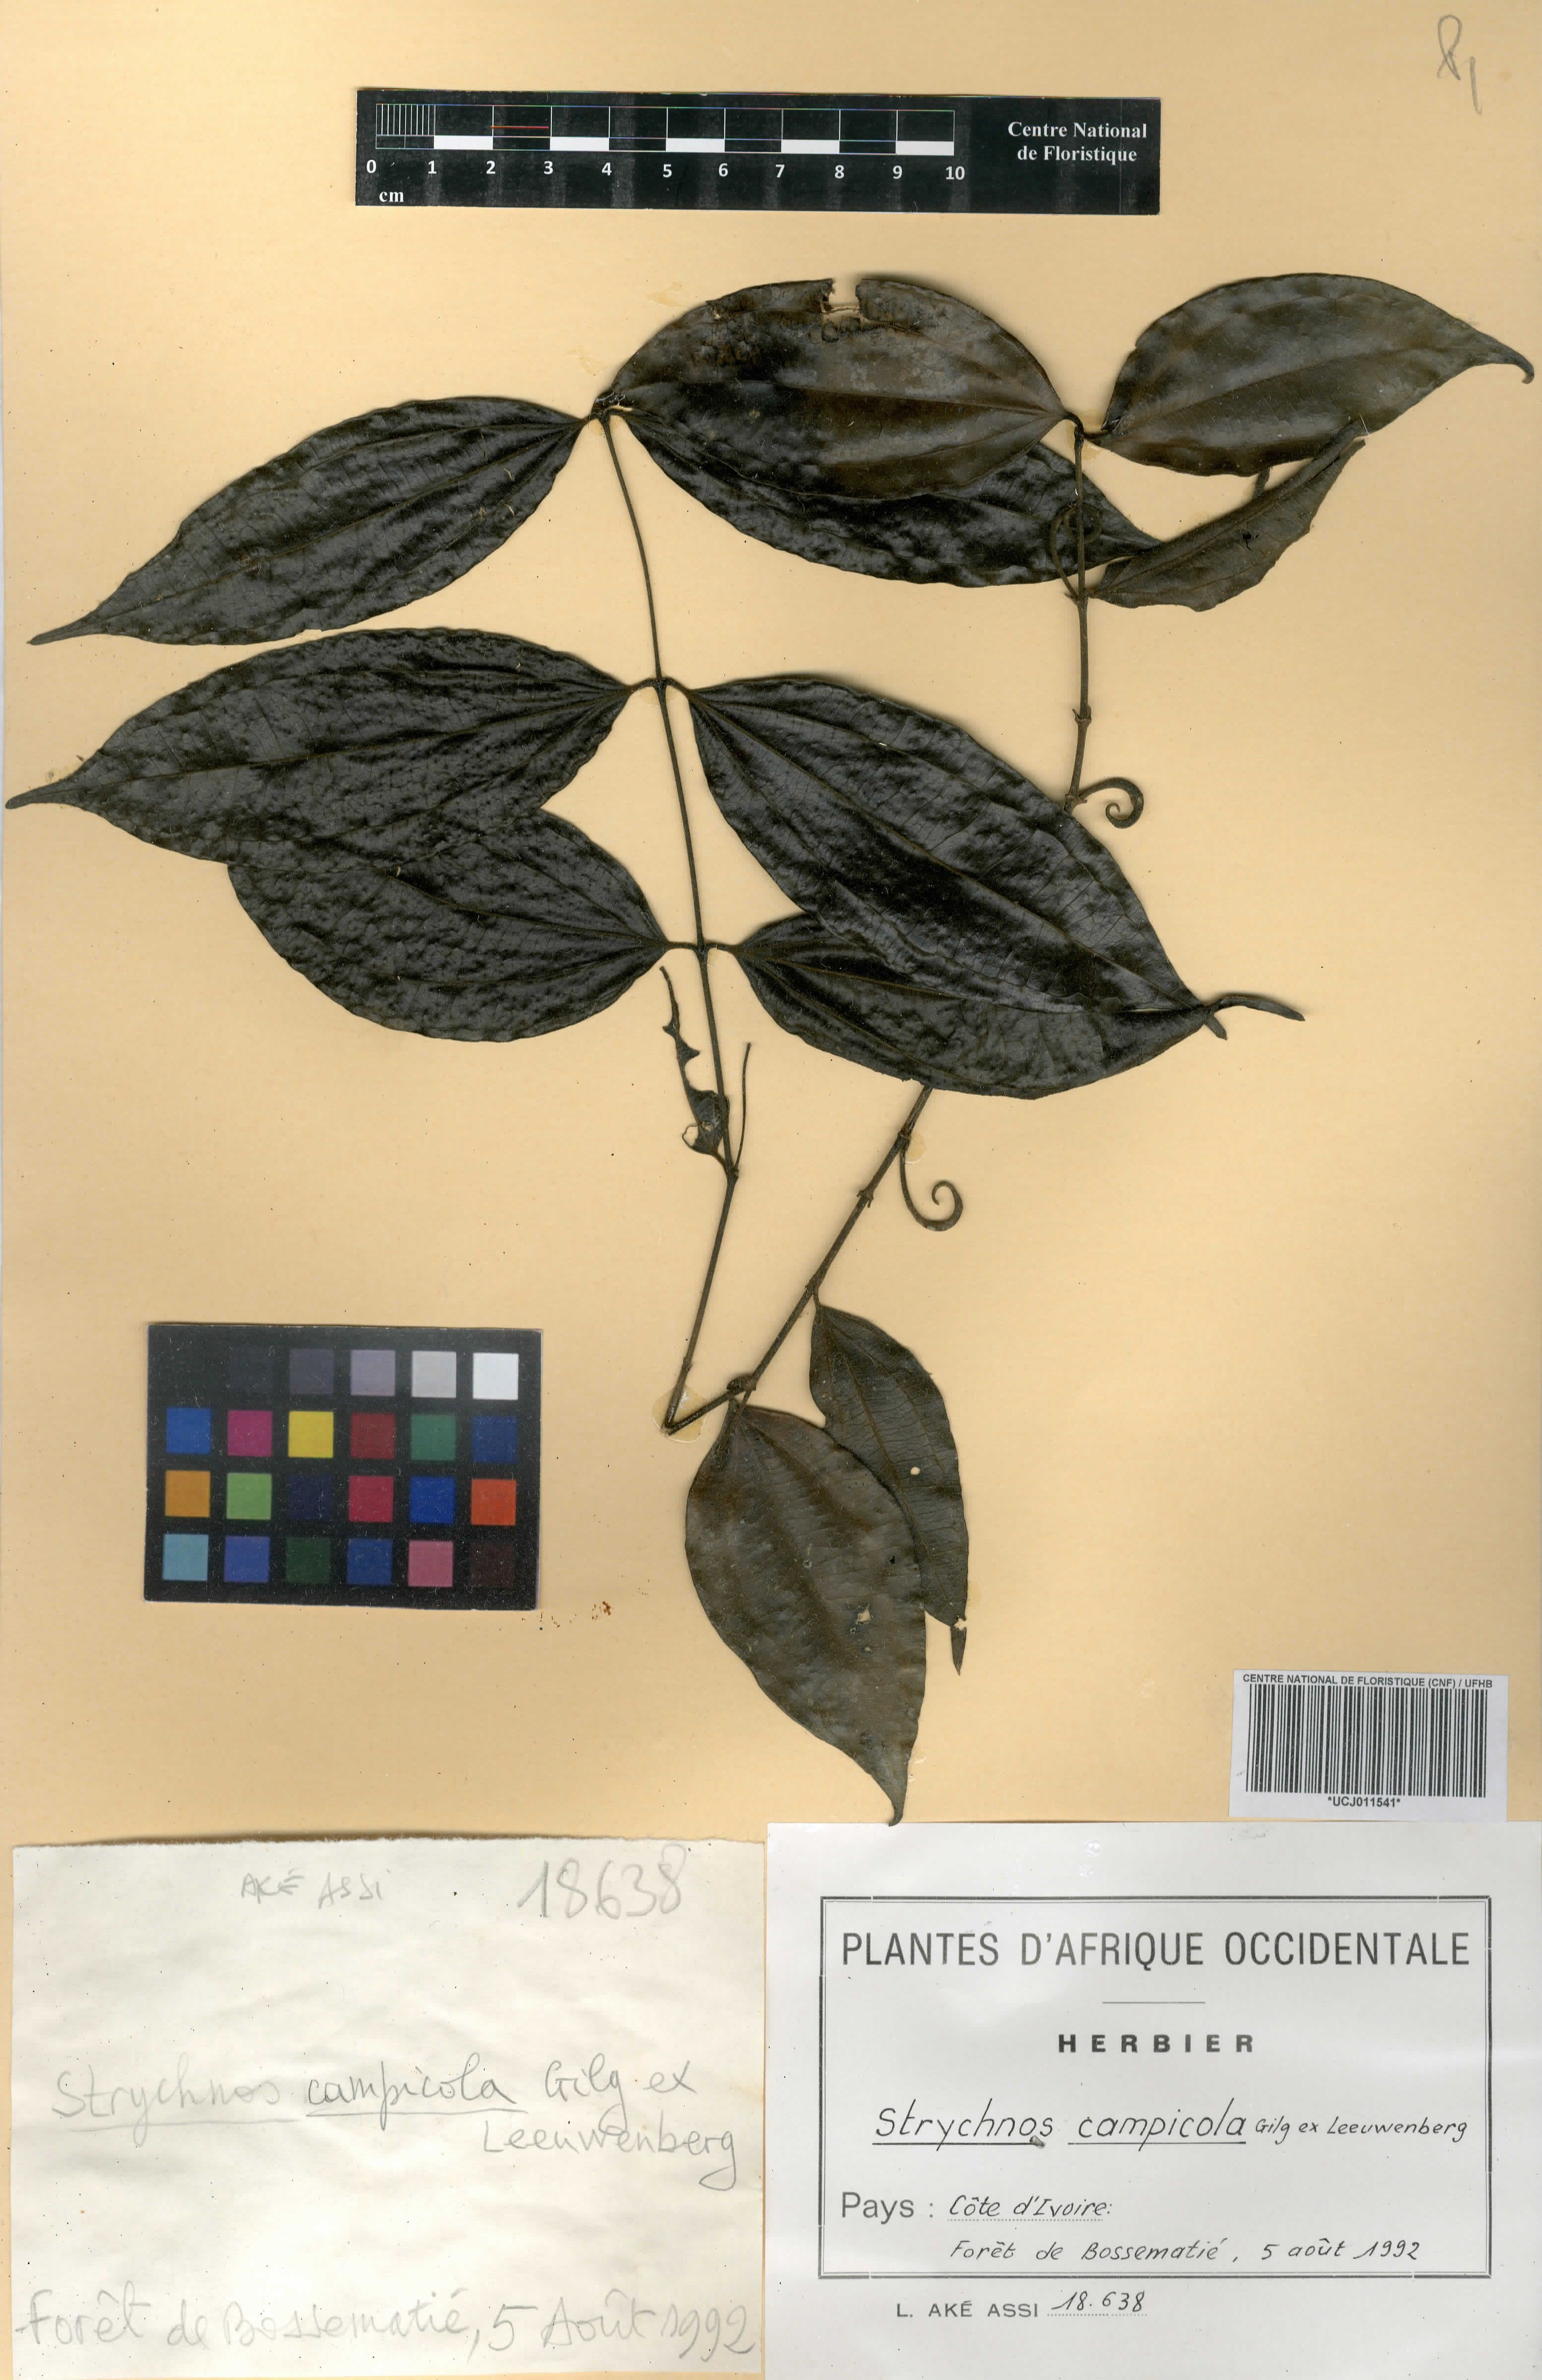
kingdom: Plantae
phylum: Tracheophyta
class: Magnoliopsida
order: Gentianales
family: Loganiaceae
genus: Strychnos
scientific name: Strychnos campicola
